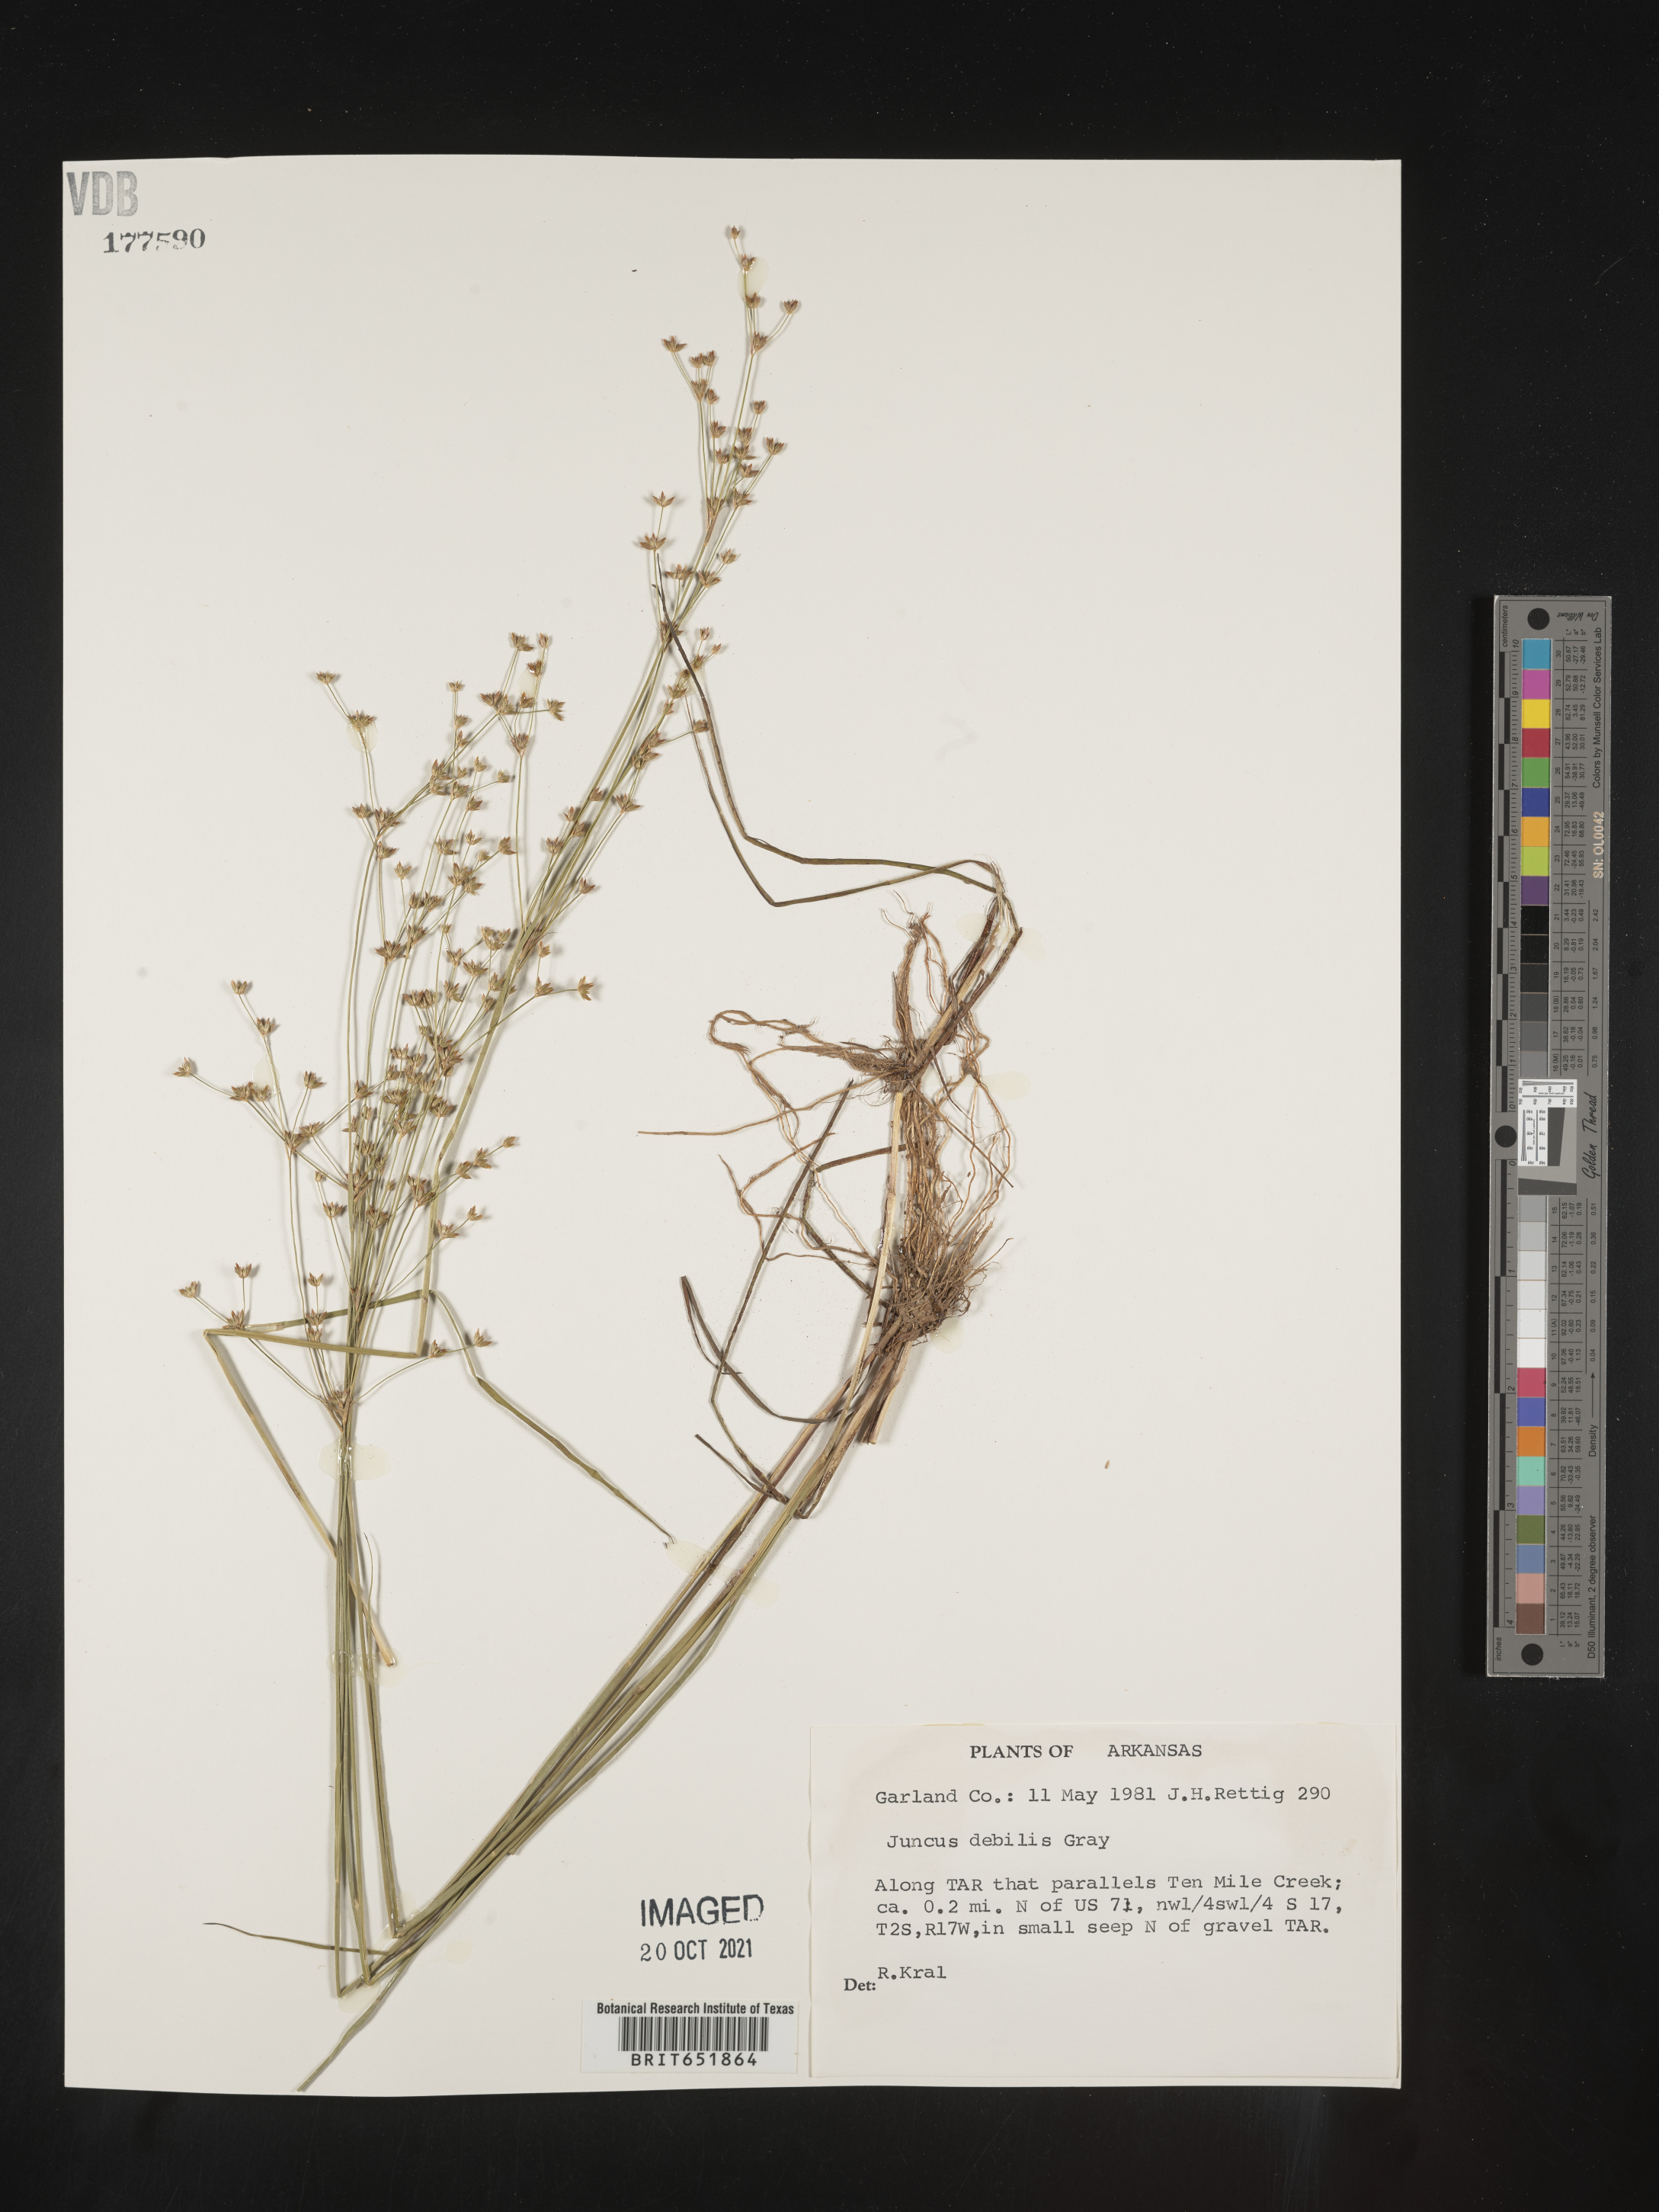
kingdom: Plantae
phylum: Tracheophyta
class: Liliopsida
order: Poales
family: Juncaceae
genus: Juncus
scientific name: Juncus debilis
